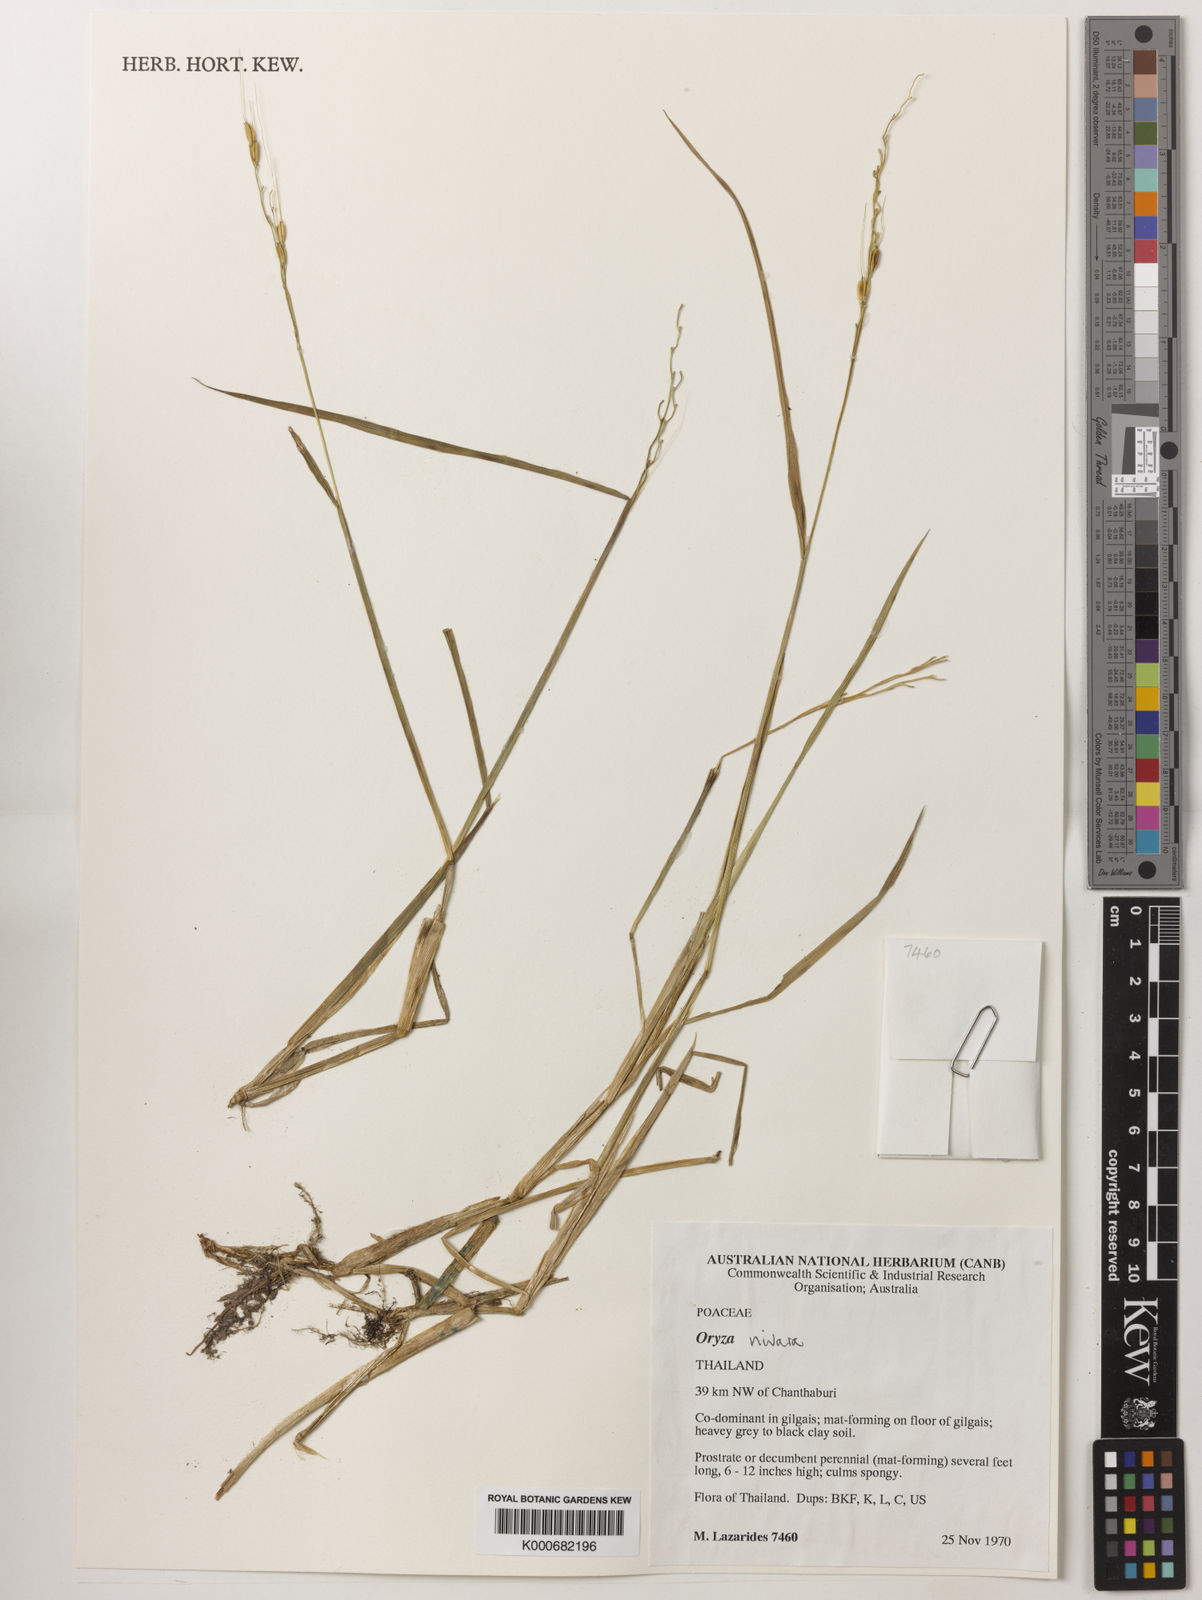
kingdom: Plantae
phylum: Tracheophyta
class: Liliopsida
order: Poales
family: Poaceae
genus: Oryza
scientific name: Oryza sativa
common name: Rice
